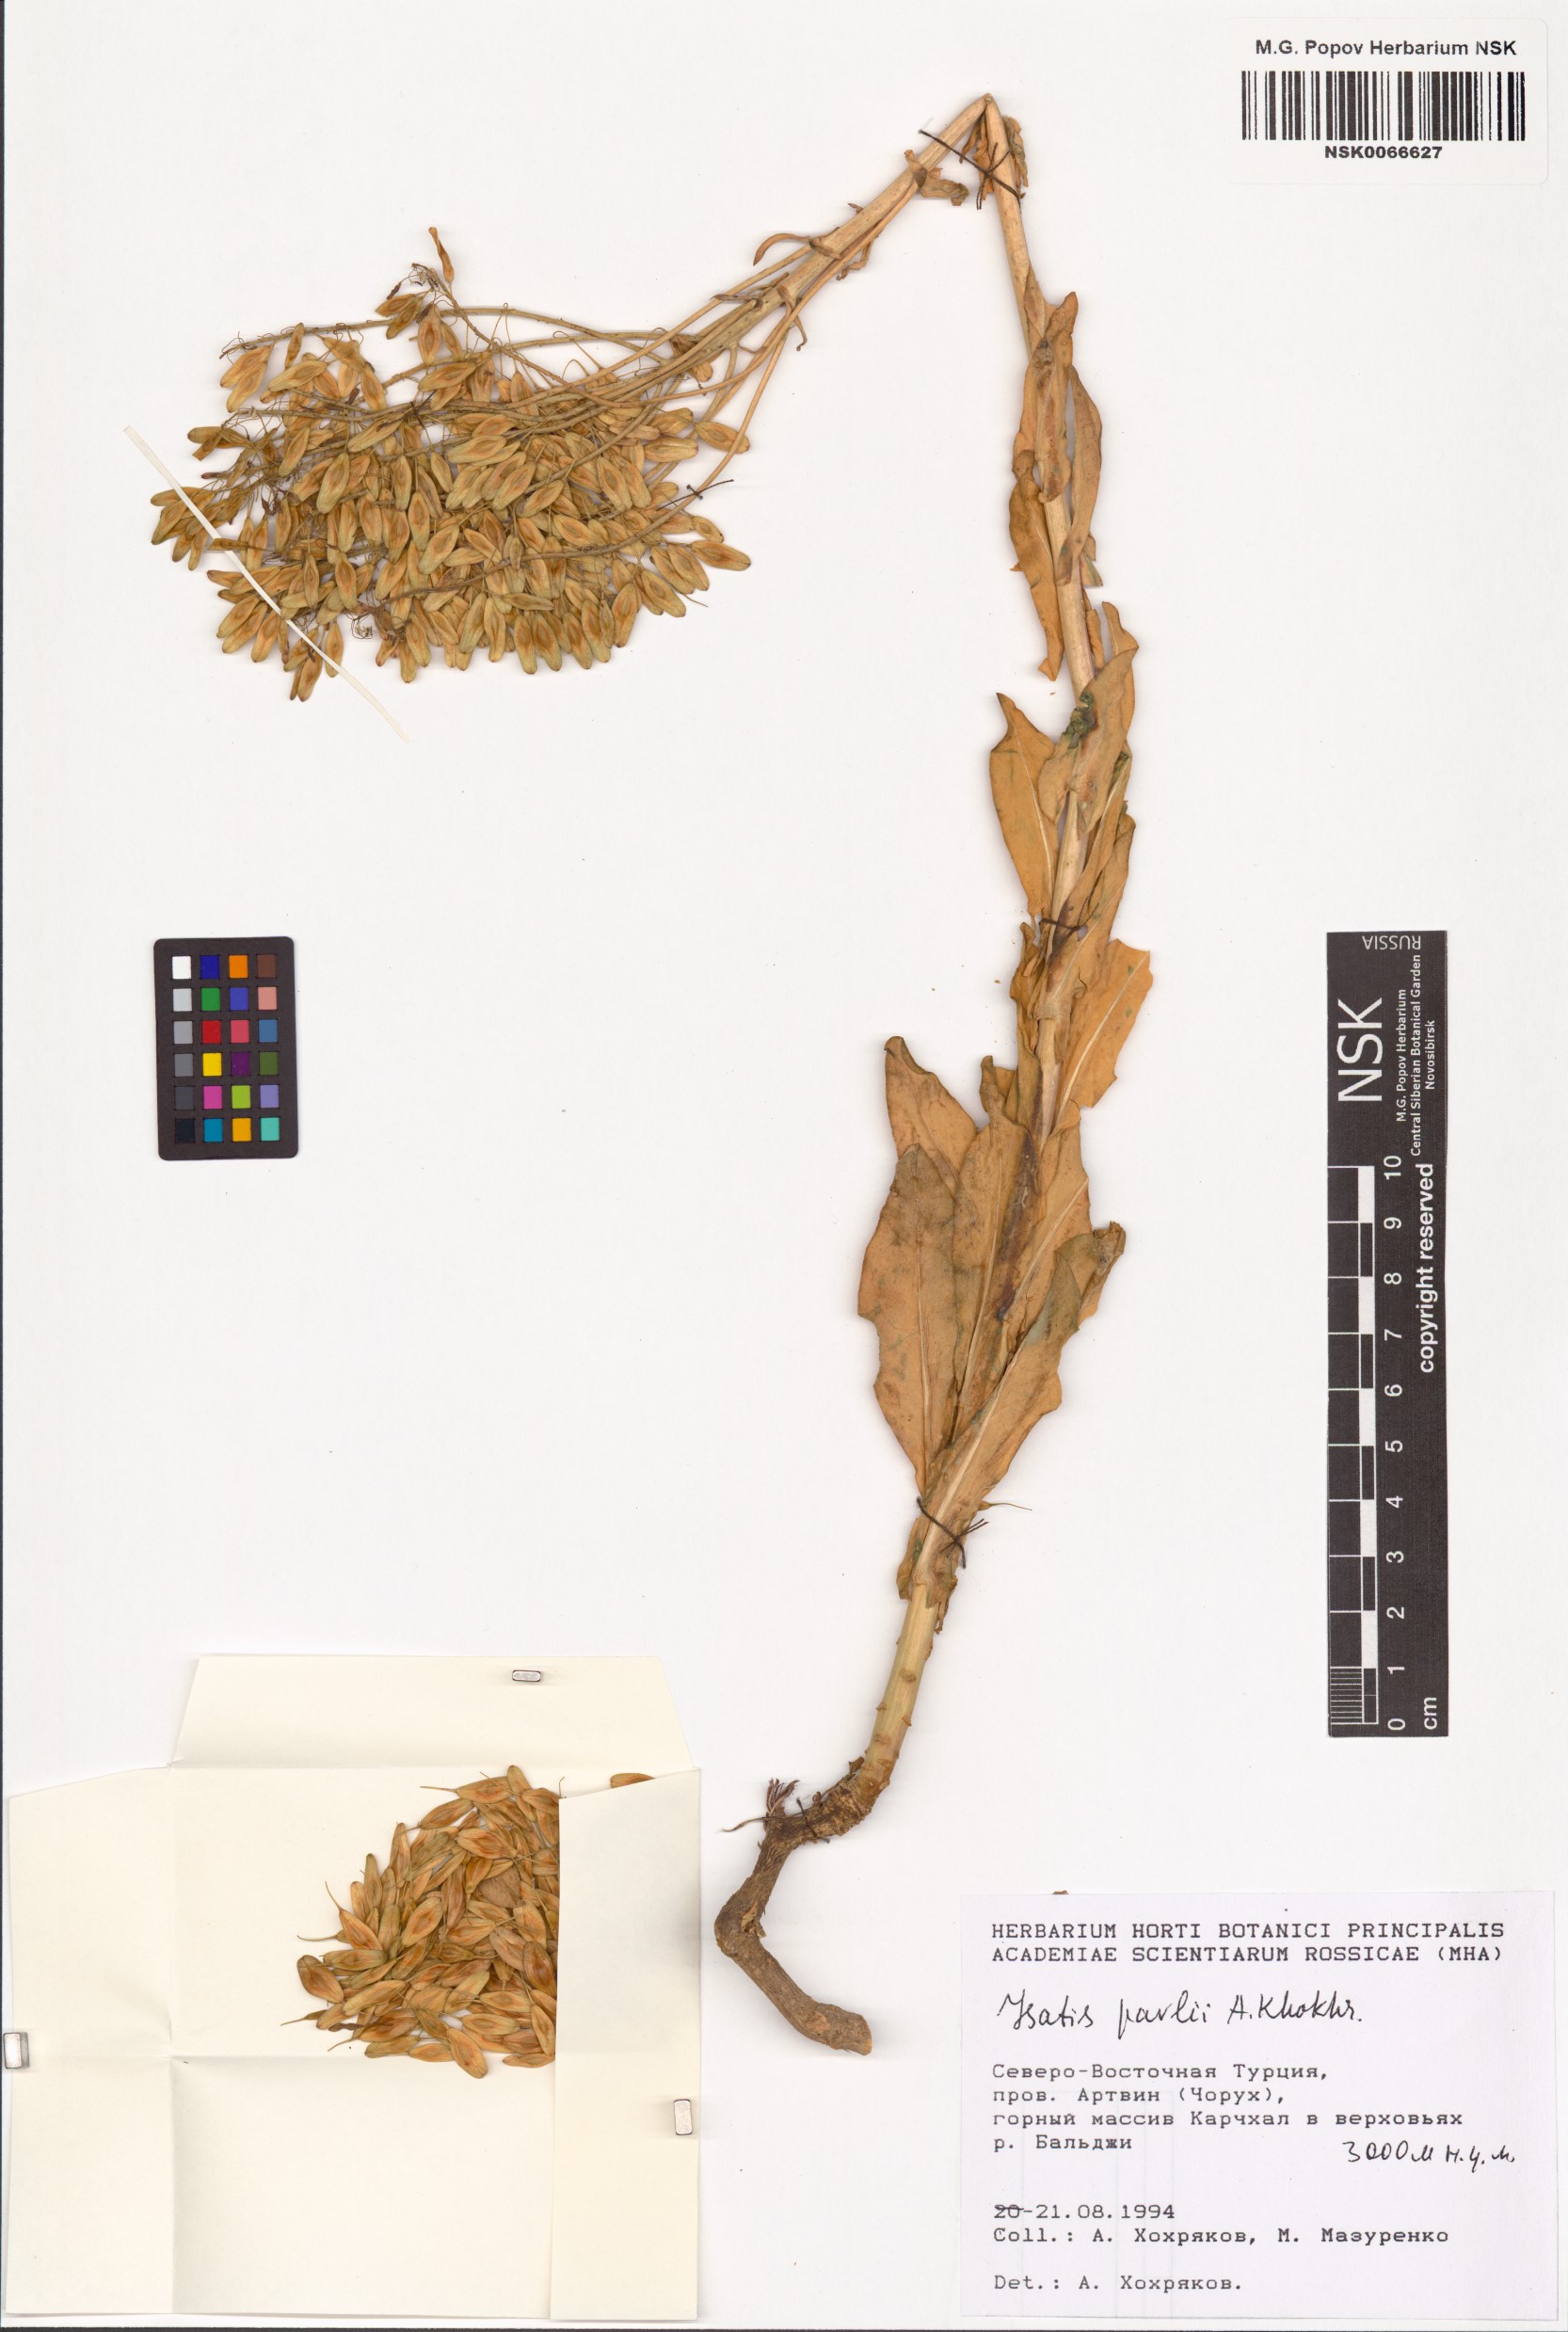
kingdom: Plantae
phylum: Tracheophyta
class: Magnoliopsida
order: Brassicales
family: Brassicaceae
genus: Isatis
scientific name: Isatis pavlii
